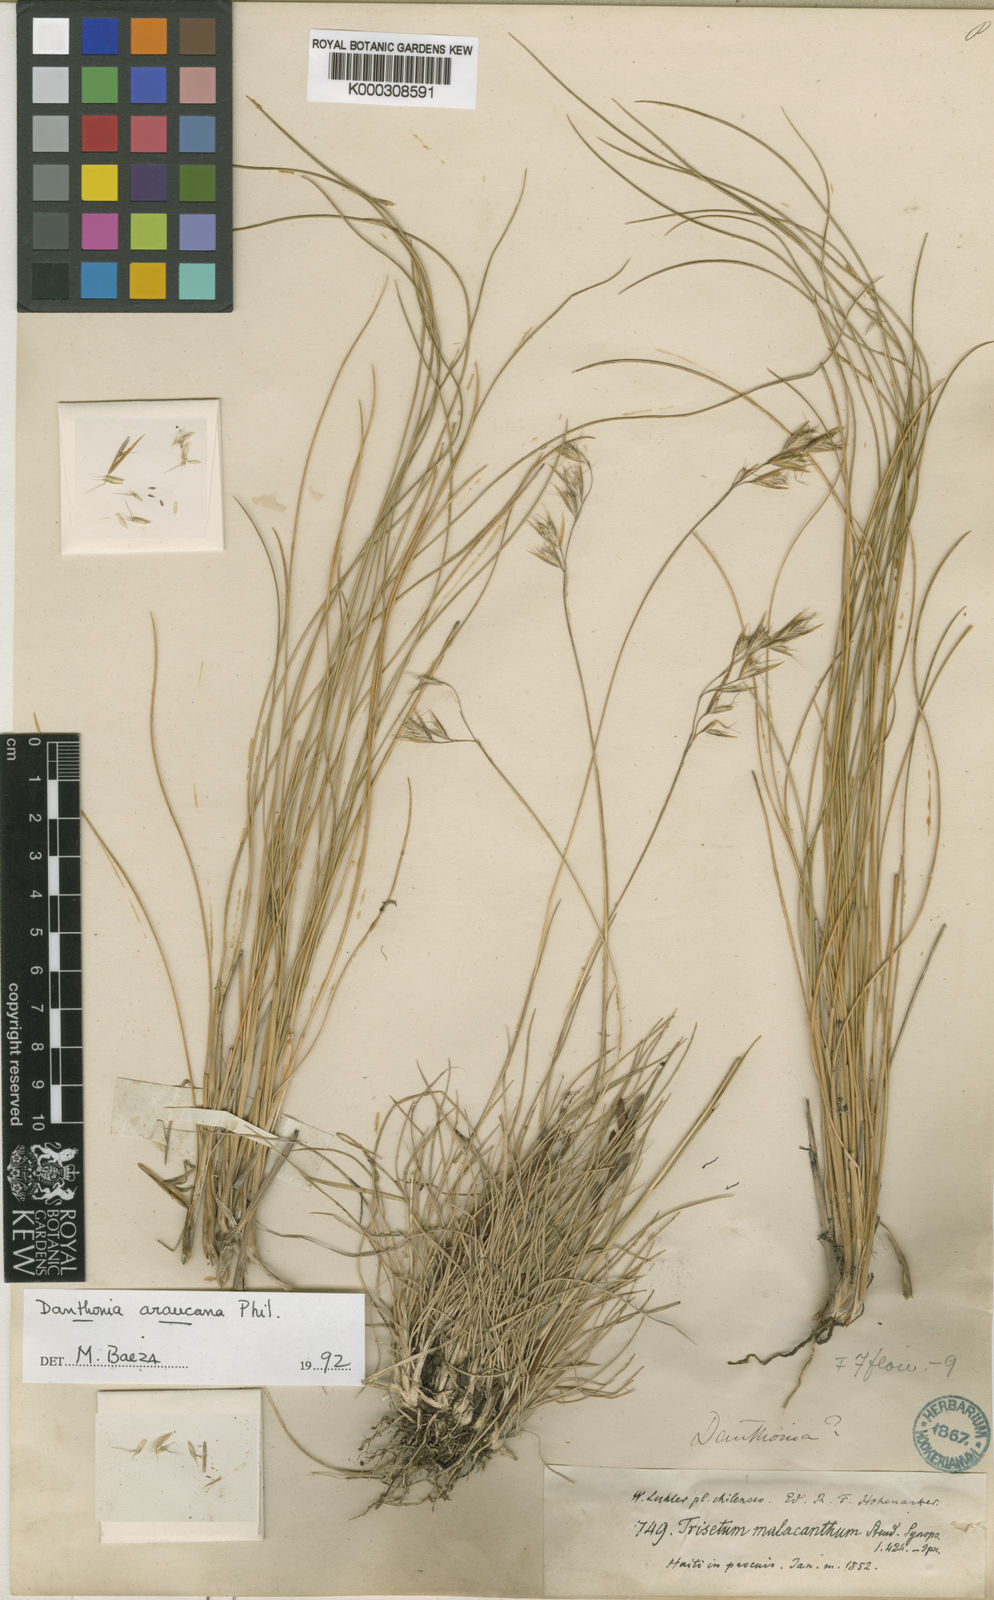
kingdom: Plantae
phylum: Tracheophyta
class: Liliopsida
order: Poales
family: Poaceae
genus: Danthonia
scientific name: Danthonia araucana
